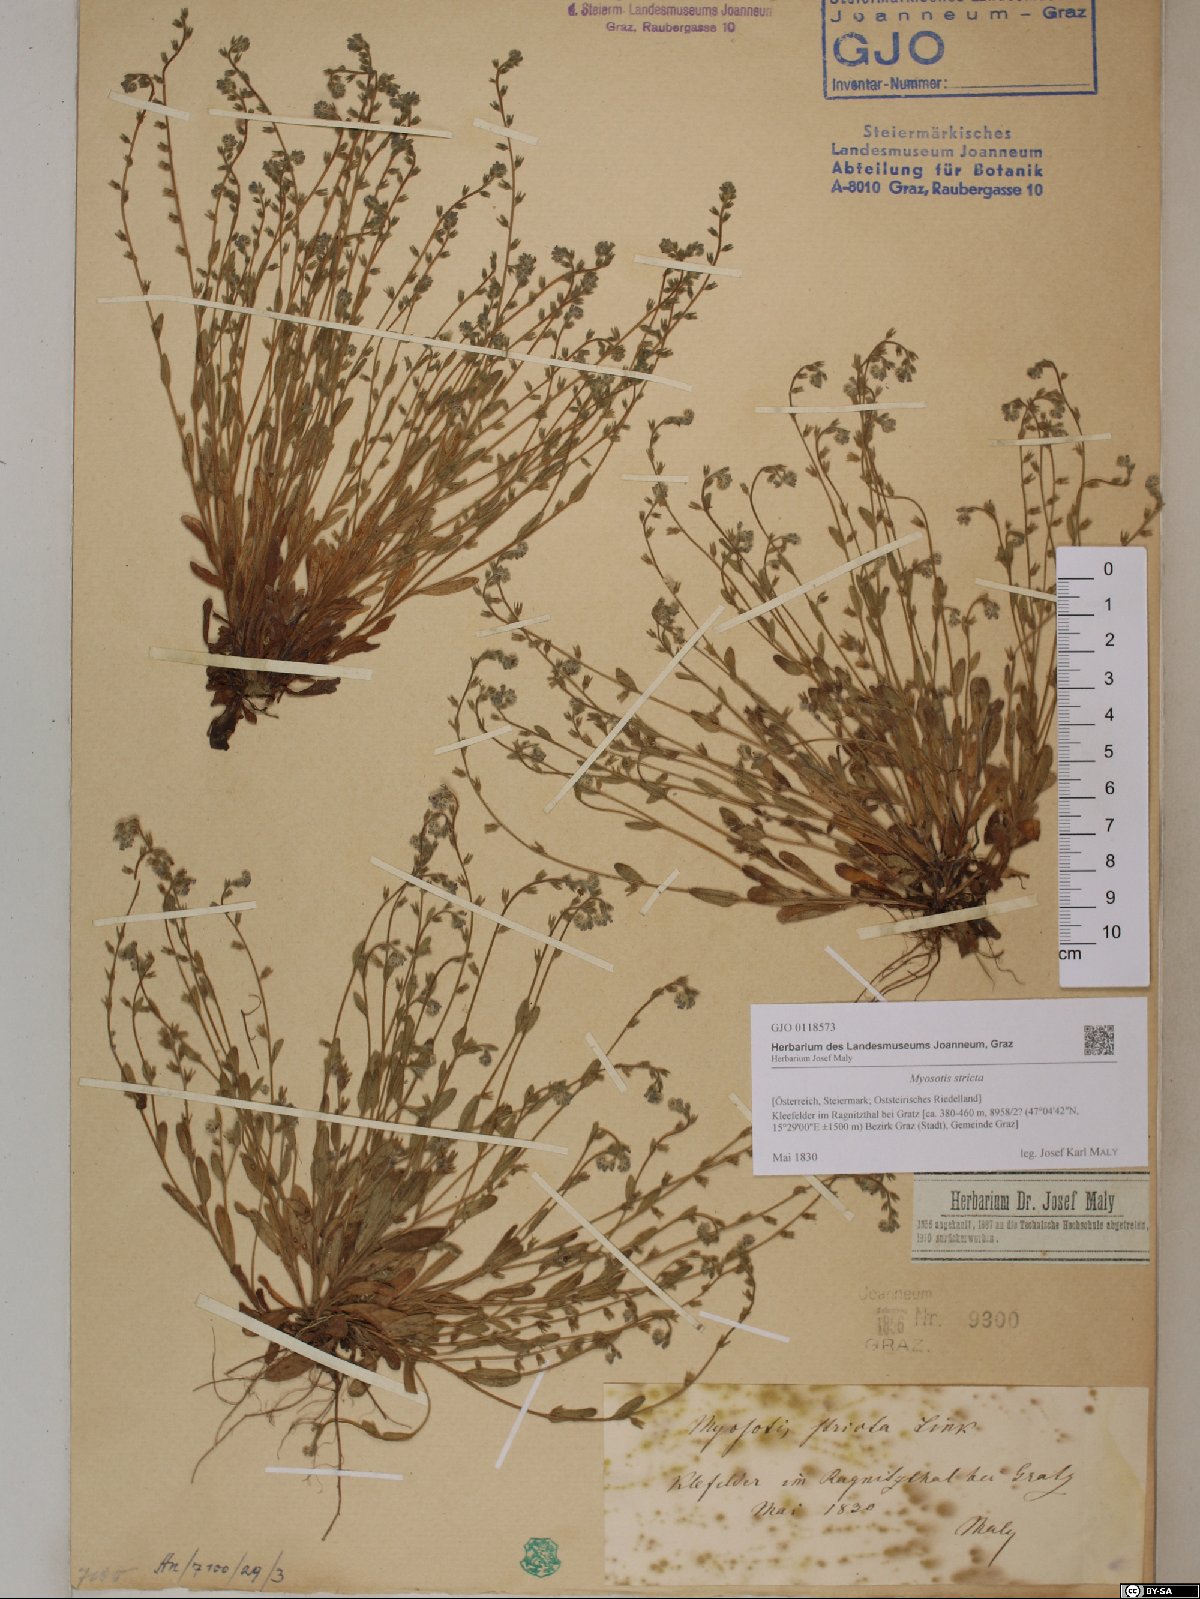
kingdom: Plantae
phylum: Tracheophyta
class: Magnoliopsida
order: Boraginales
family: Boraginaceae
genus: Myosotis
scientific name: Myosotis stricta
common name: Strict forget-me-not
